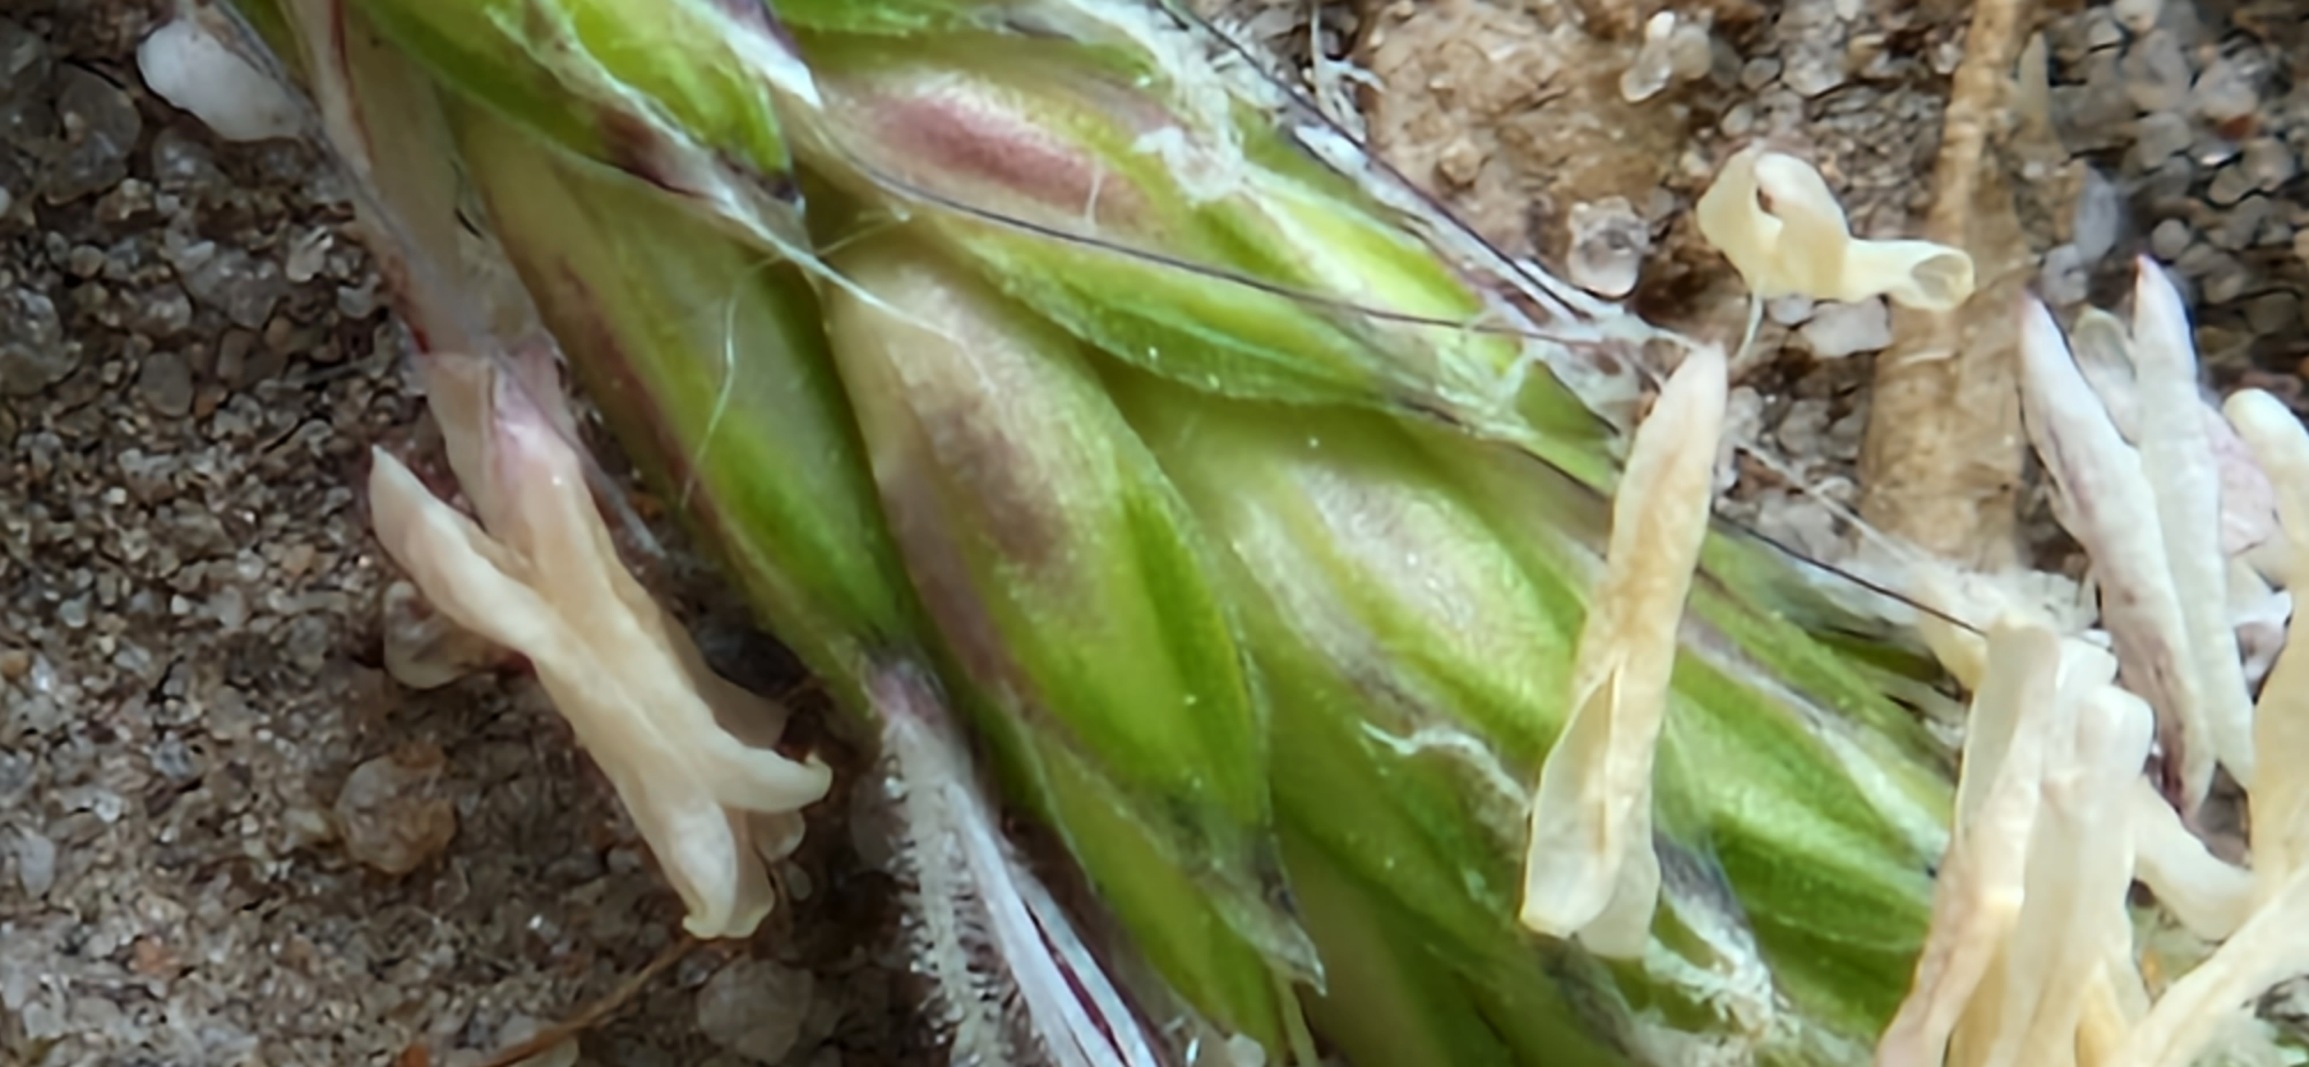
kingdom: Plantae
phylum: Tracheophyta
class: Liliopsida
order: Poales
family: Poaceae
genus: Alopecurus
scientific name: Alopecurus myosuroides
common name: Ager-rævehale
